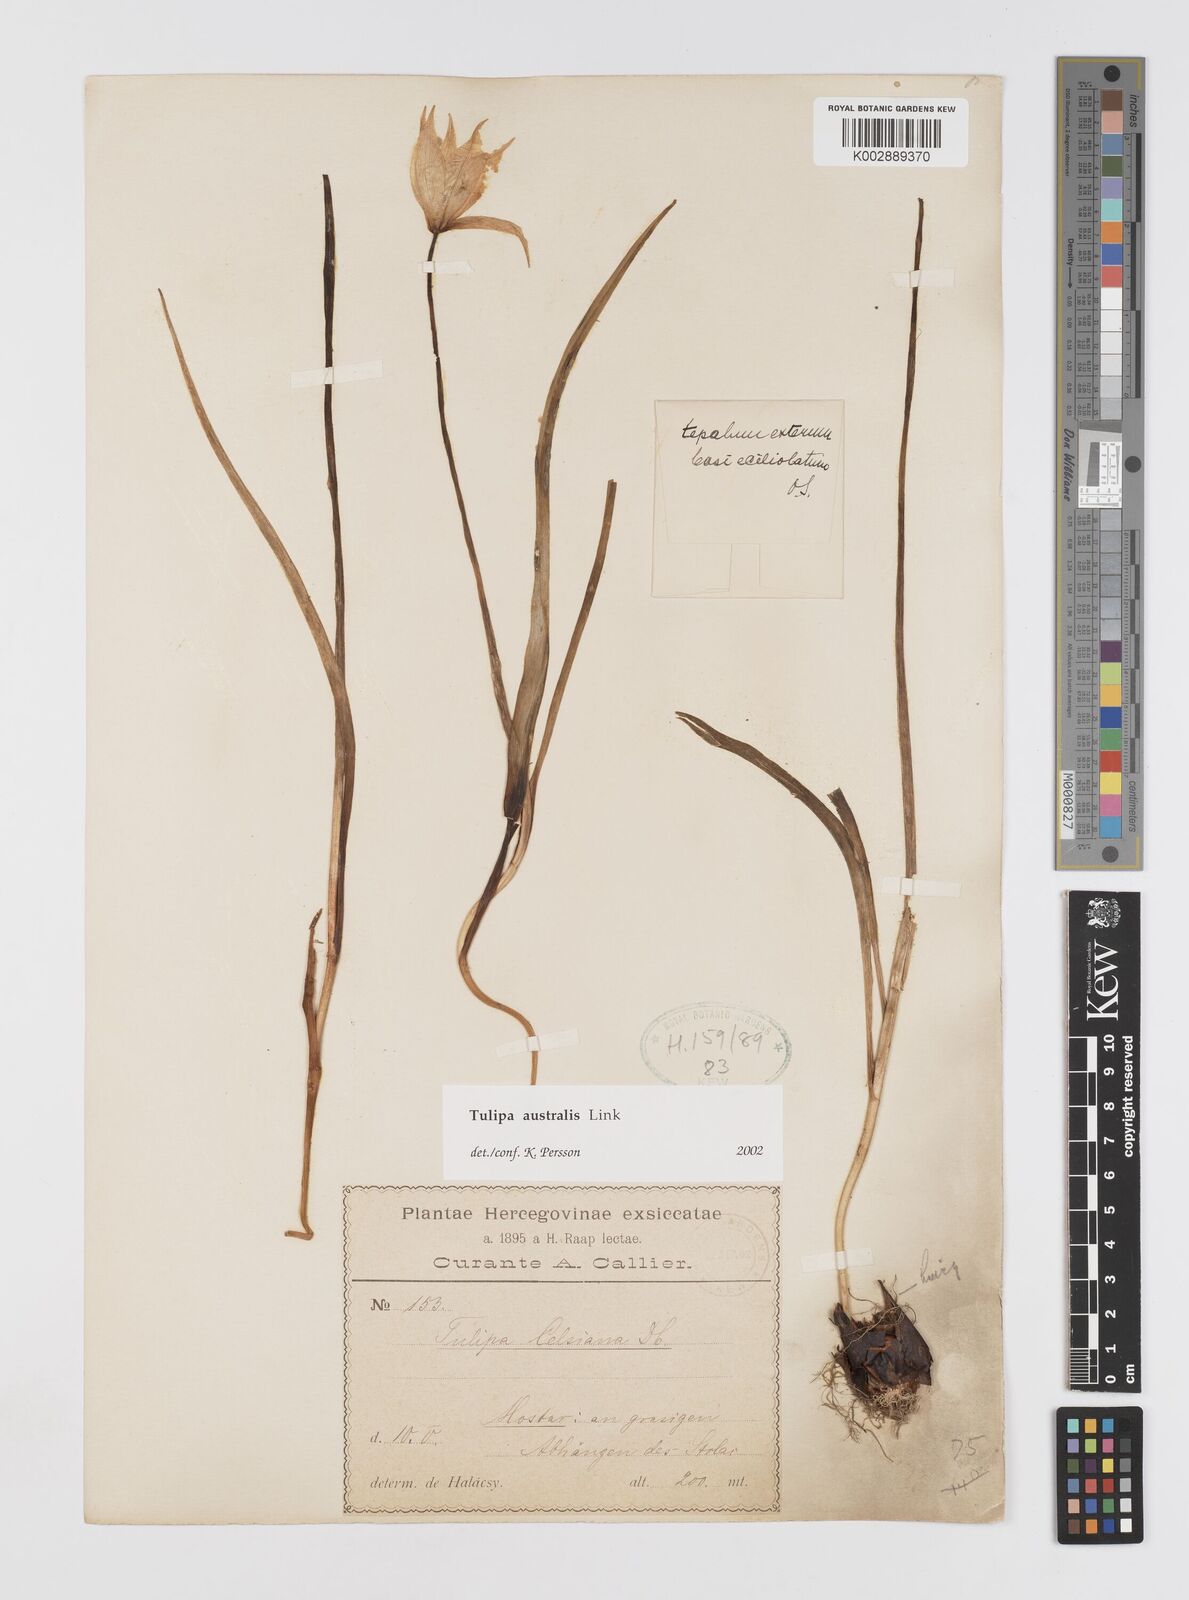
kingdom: Plantae
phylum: Tracheophyta
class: Liliopsida
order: Liliales
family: Liliaceae
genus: Tulipa
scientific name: Tulipa sylvestris
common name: Wild tulip
